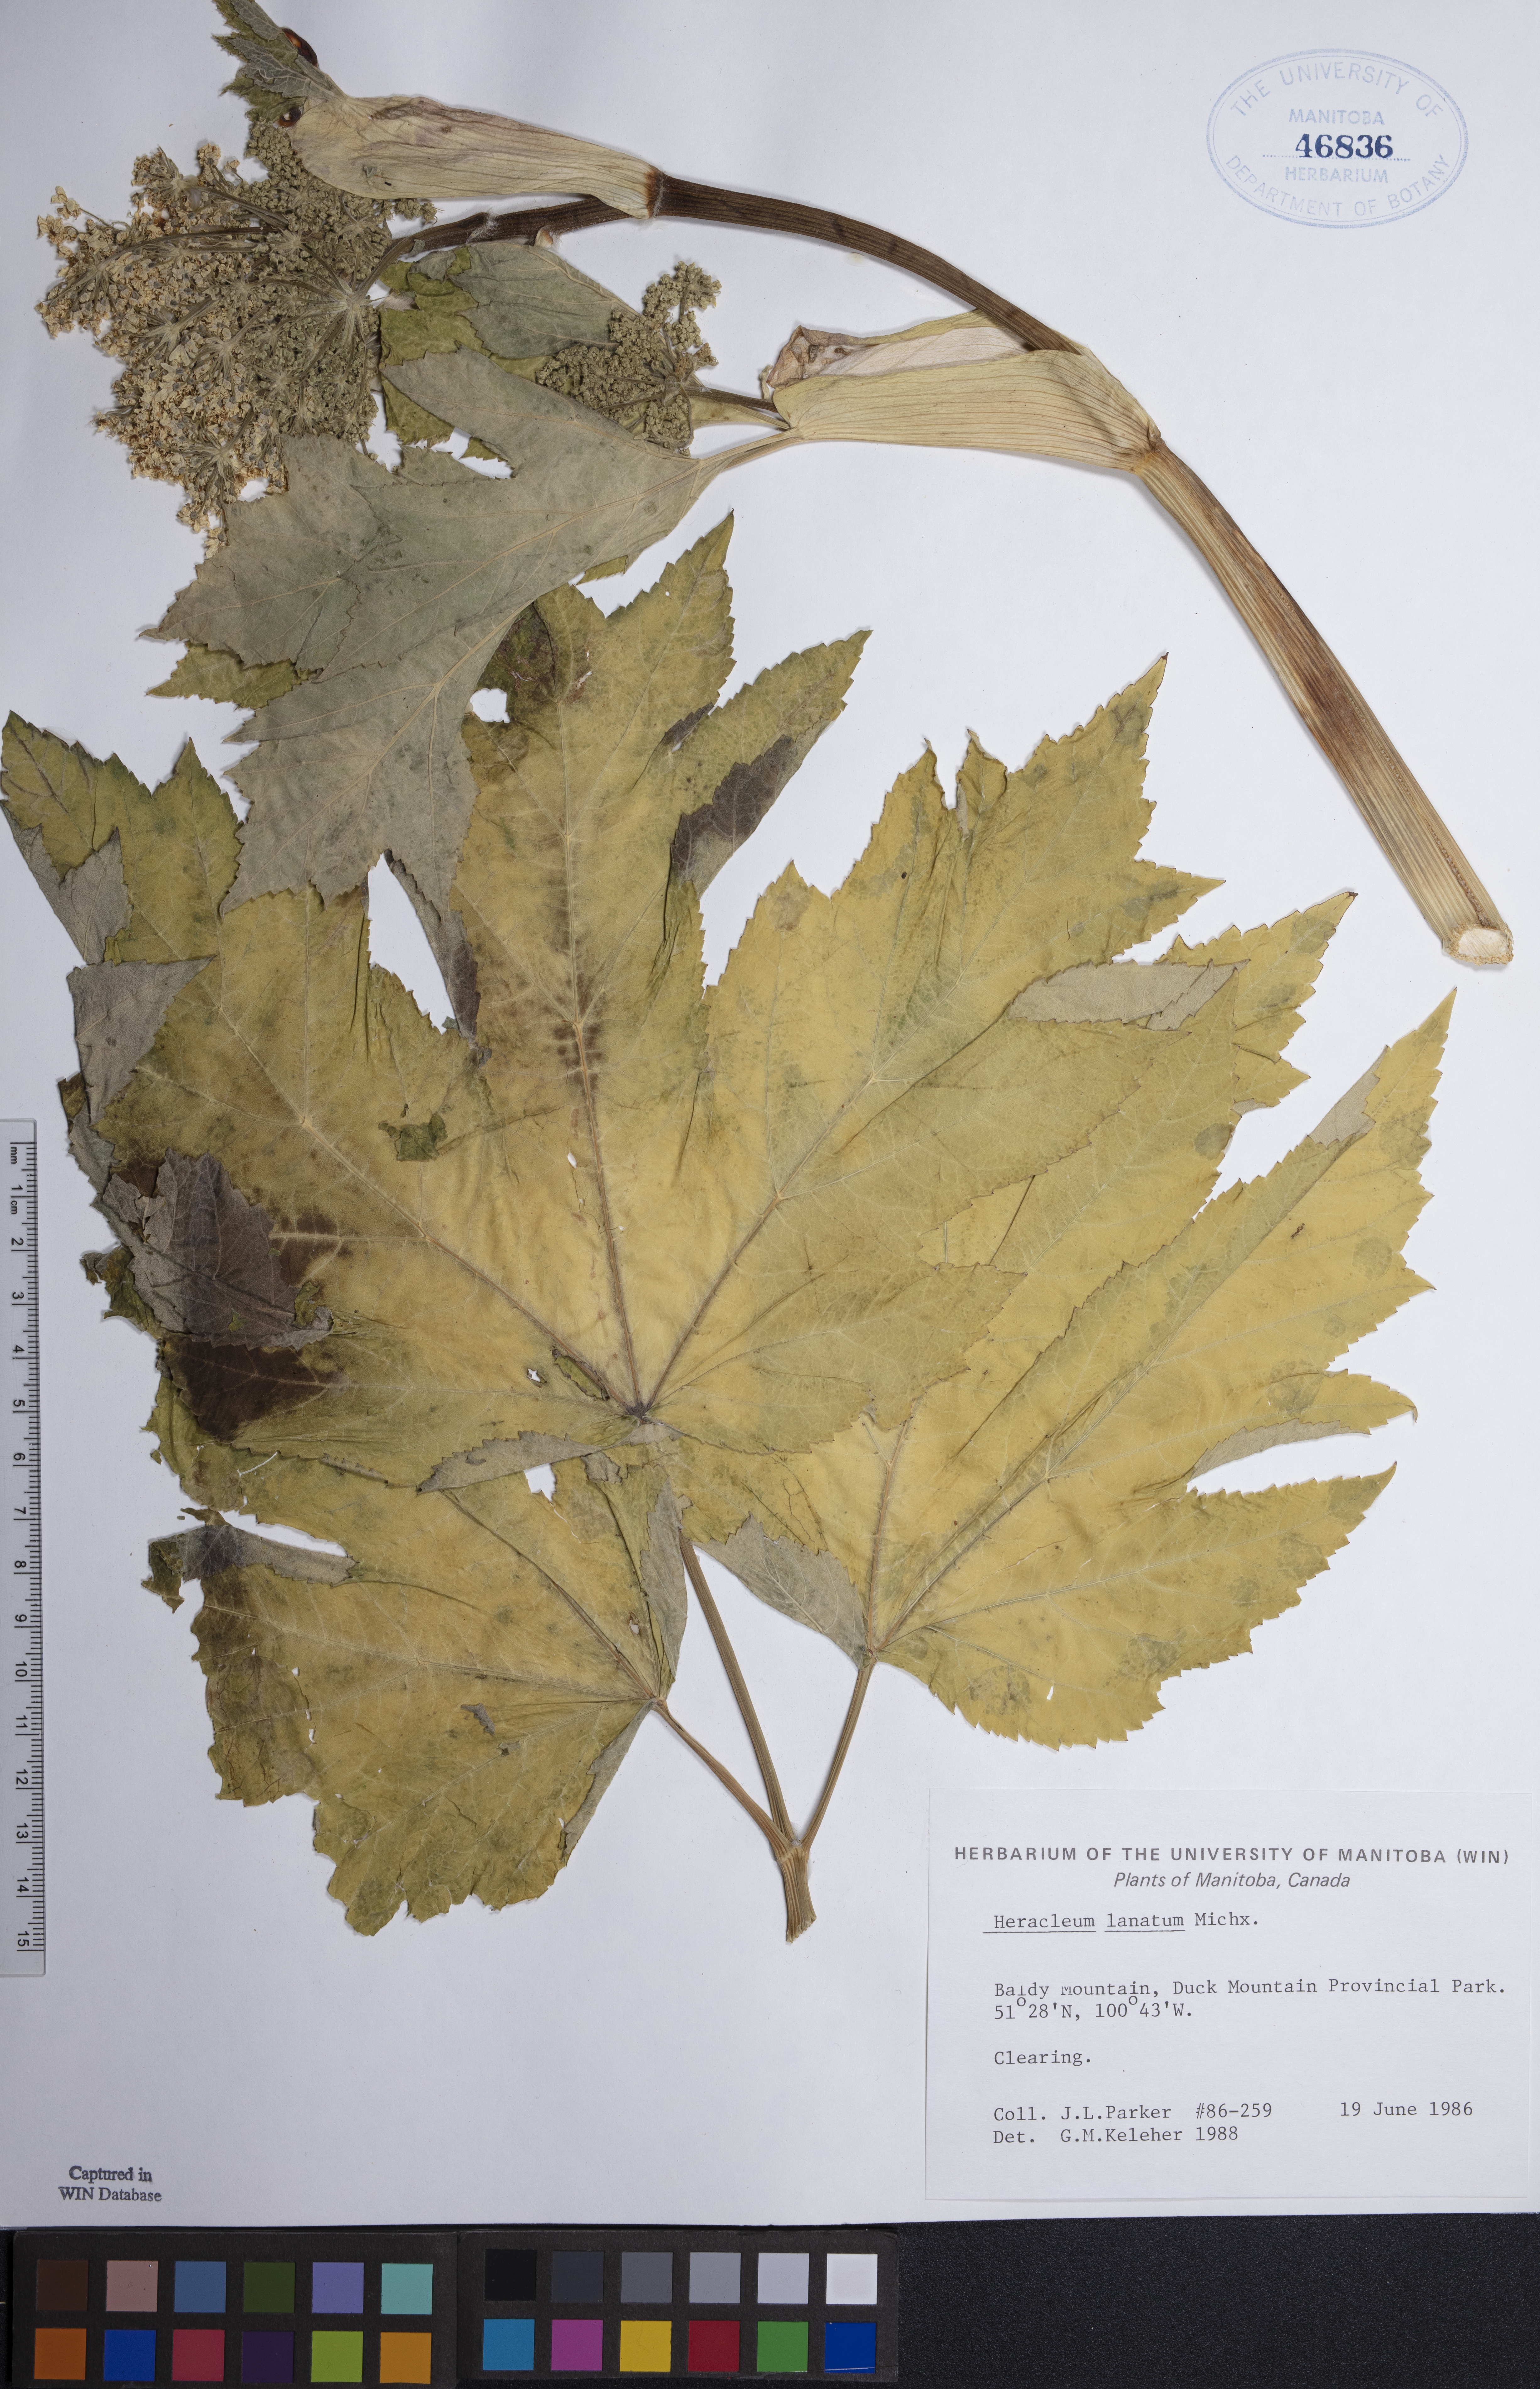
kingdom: Plantae
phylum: Tracheophyta
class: Magnoliopsida
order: Apiales
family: Apiaceae
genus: Heracleum
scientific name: Heracleum maximum
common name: American cow parsnip
